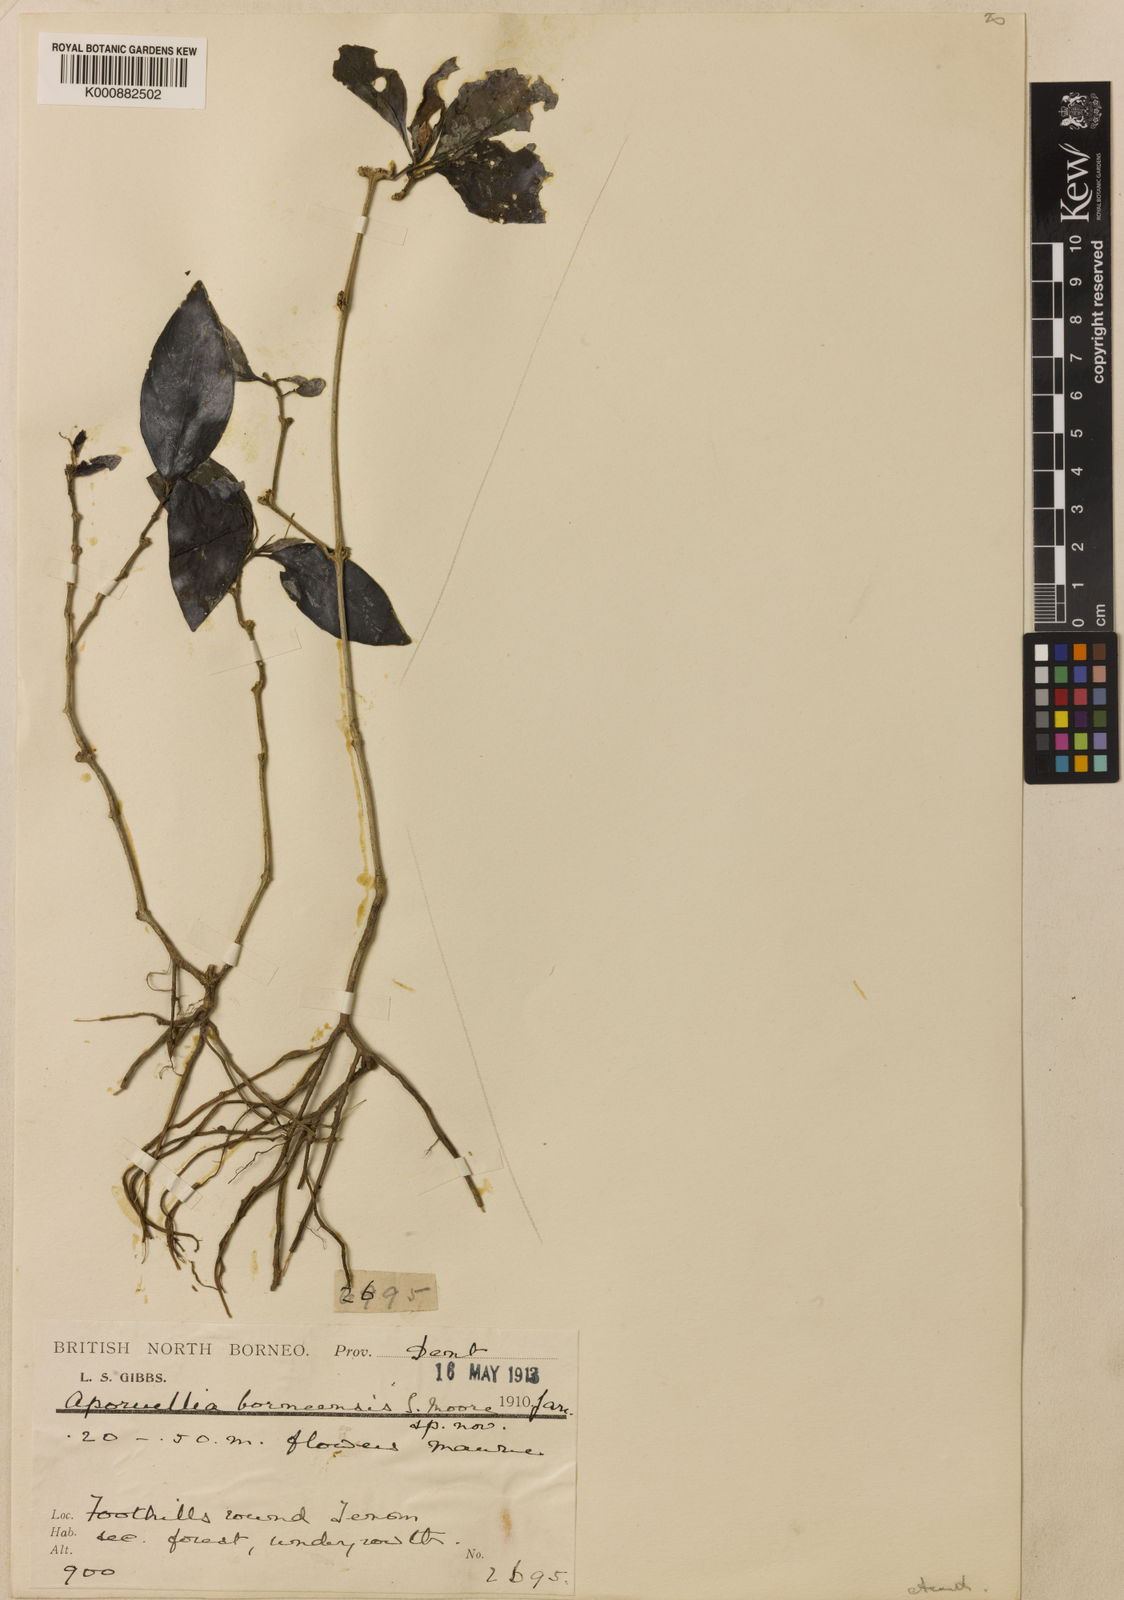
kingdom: Plantae
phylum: Tracheophyta
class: Magnoliopsida
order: Lamiales
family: Acanthaceae
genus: Ruellia
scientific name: Ruellia borneensis
